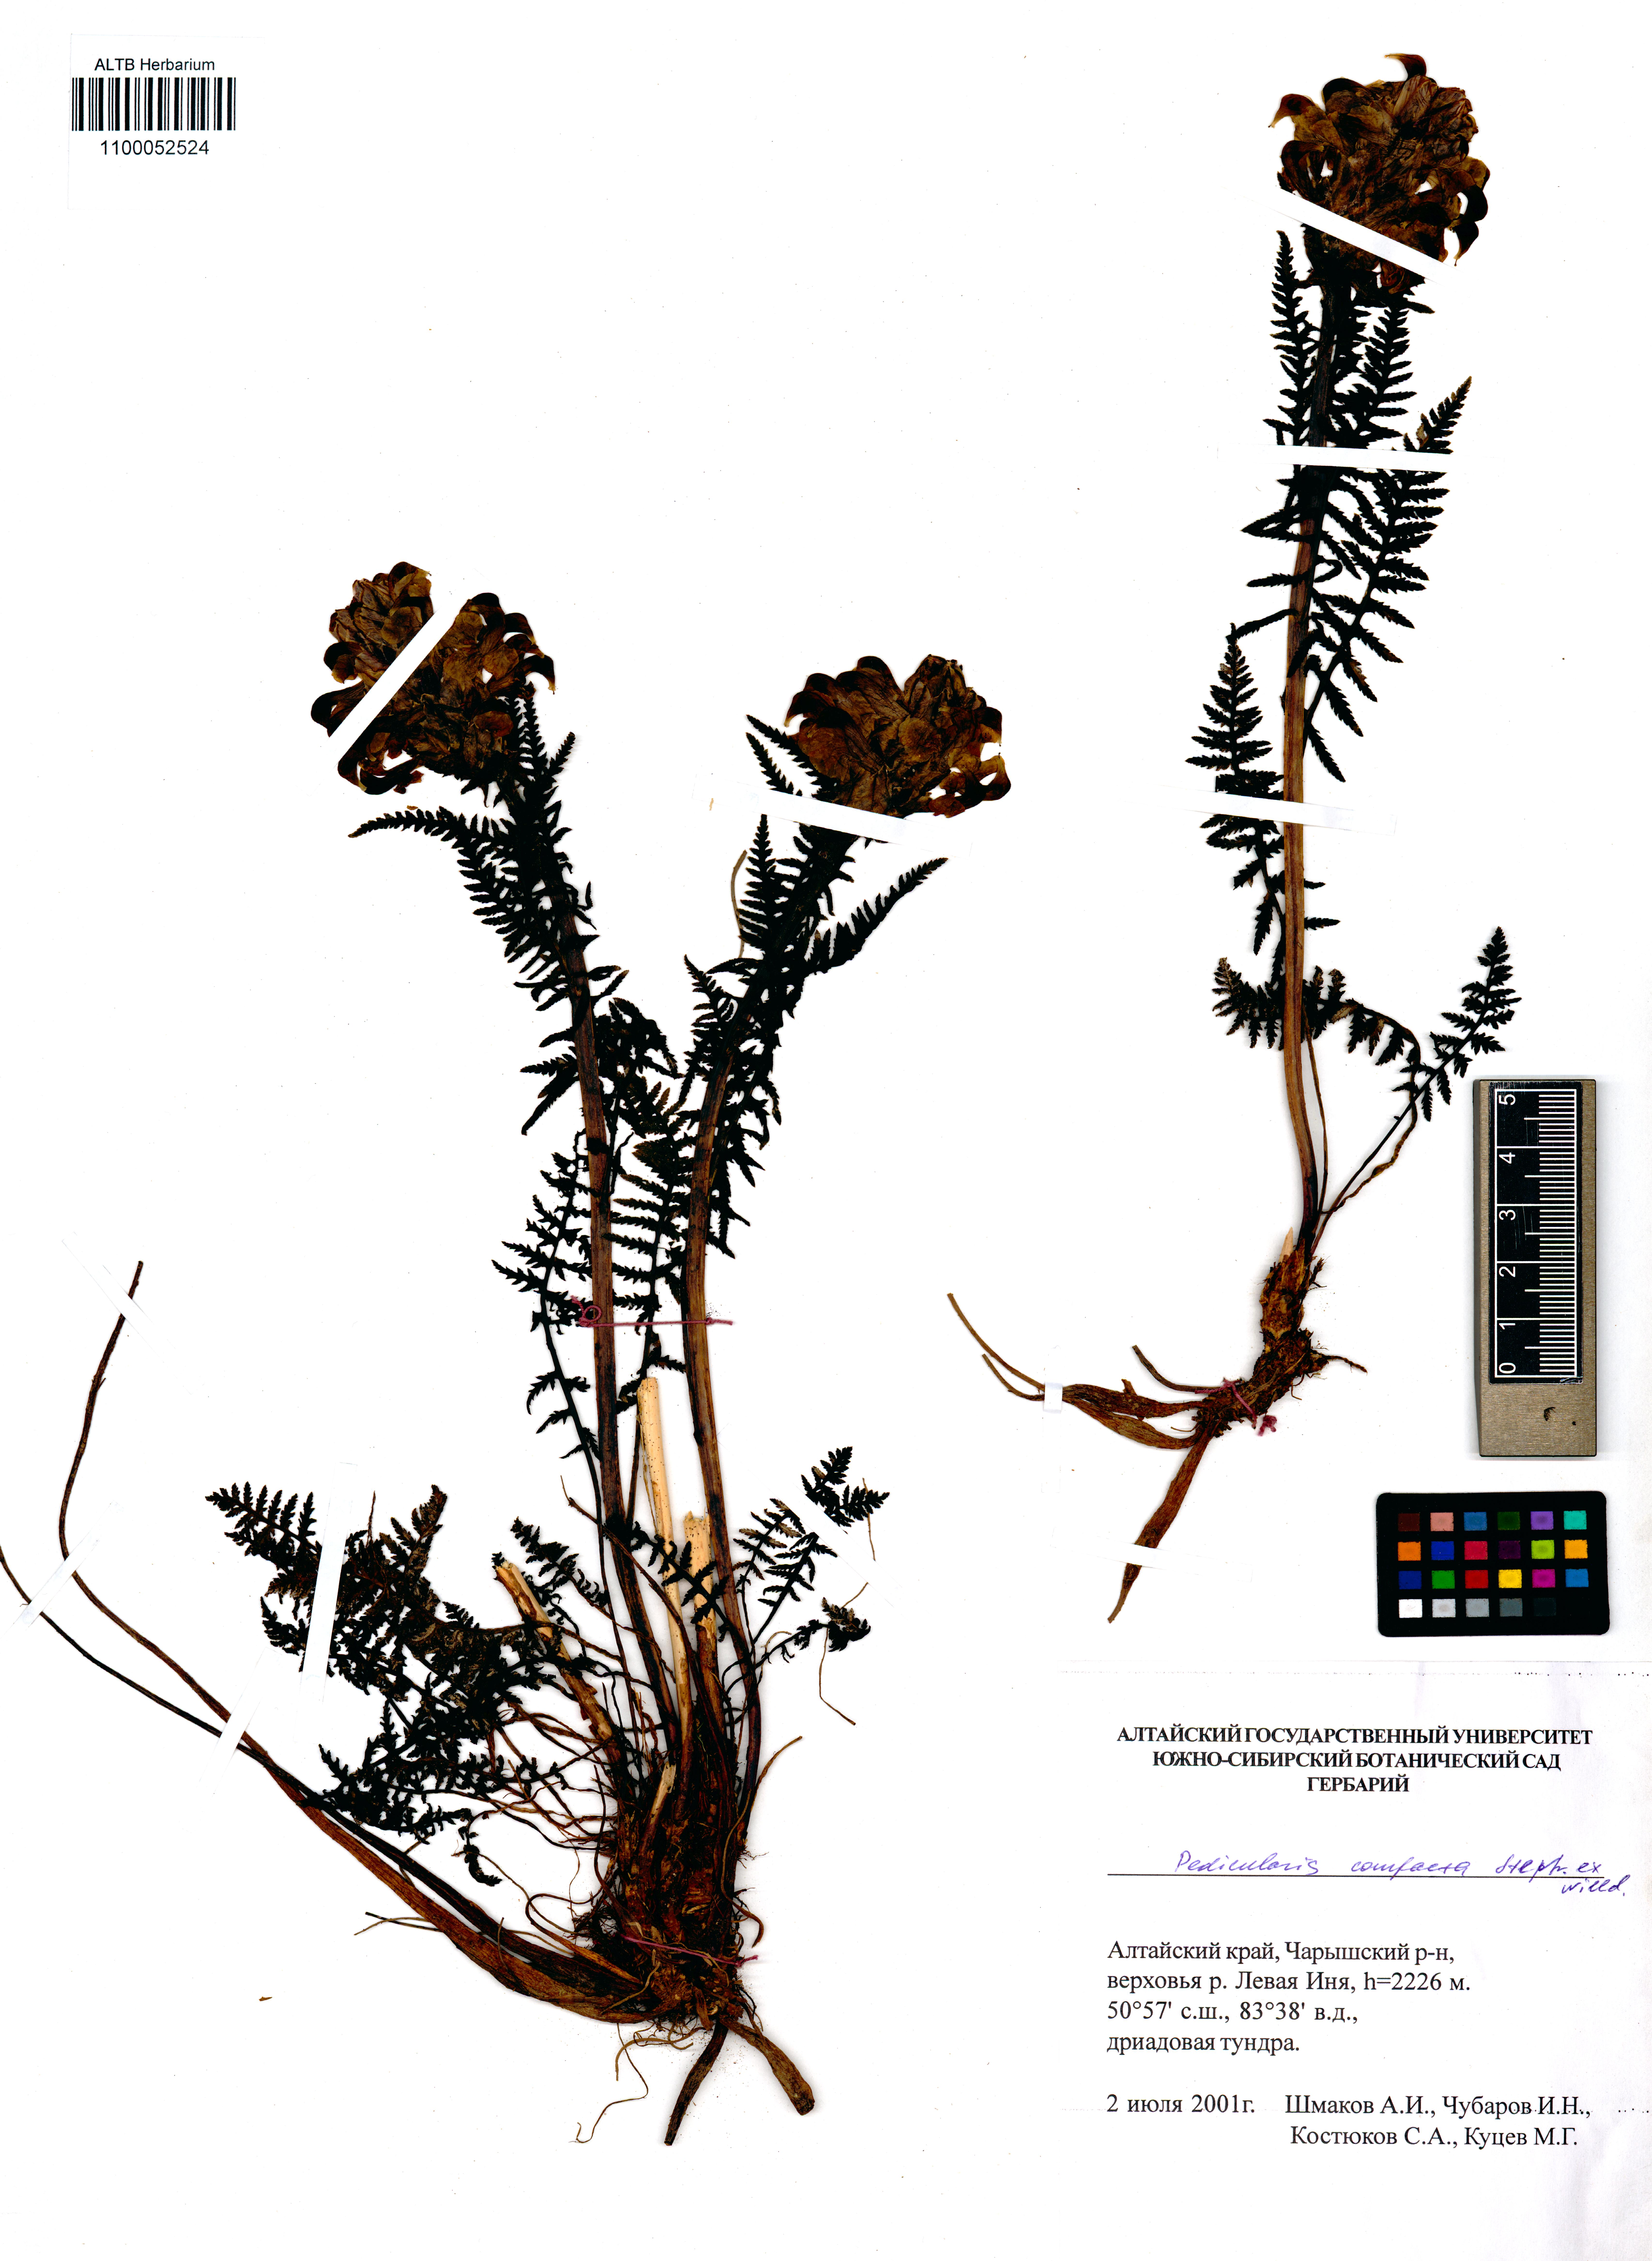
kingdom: Plantae
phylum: Tracheophyta
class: Magnoliopsida
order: Lamiales
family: Orobanchaceae
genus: Pedicularis
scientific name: Pedicularis compacta
